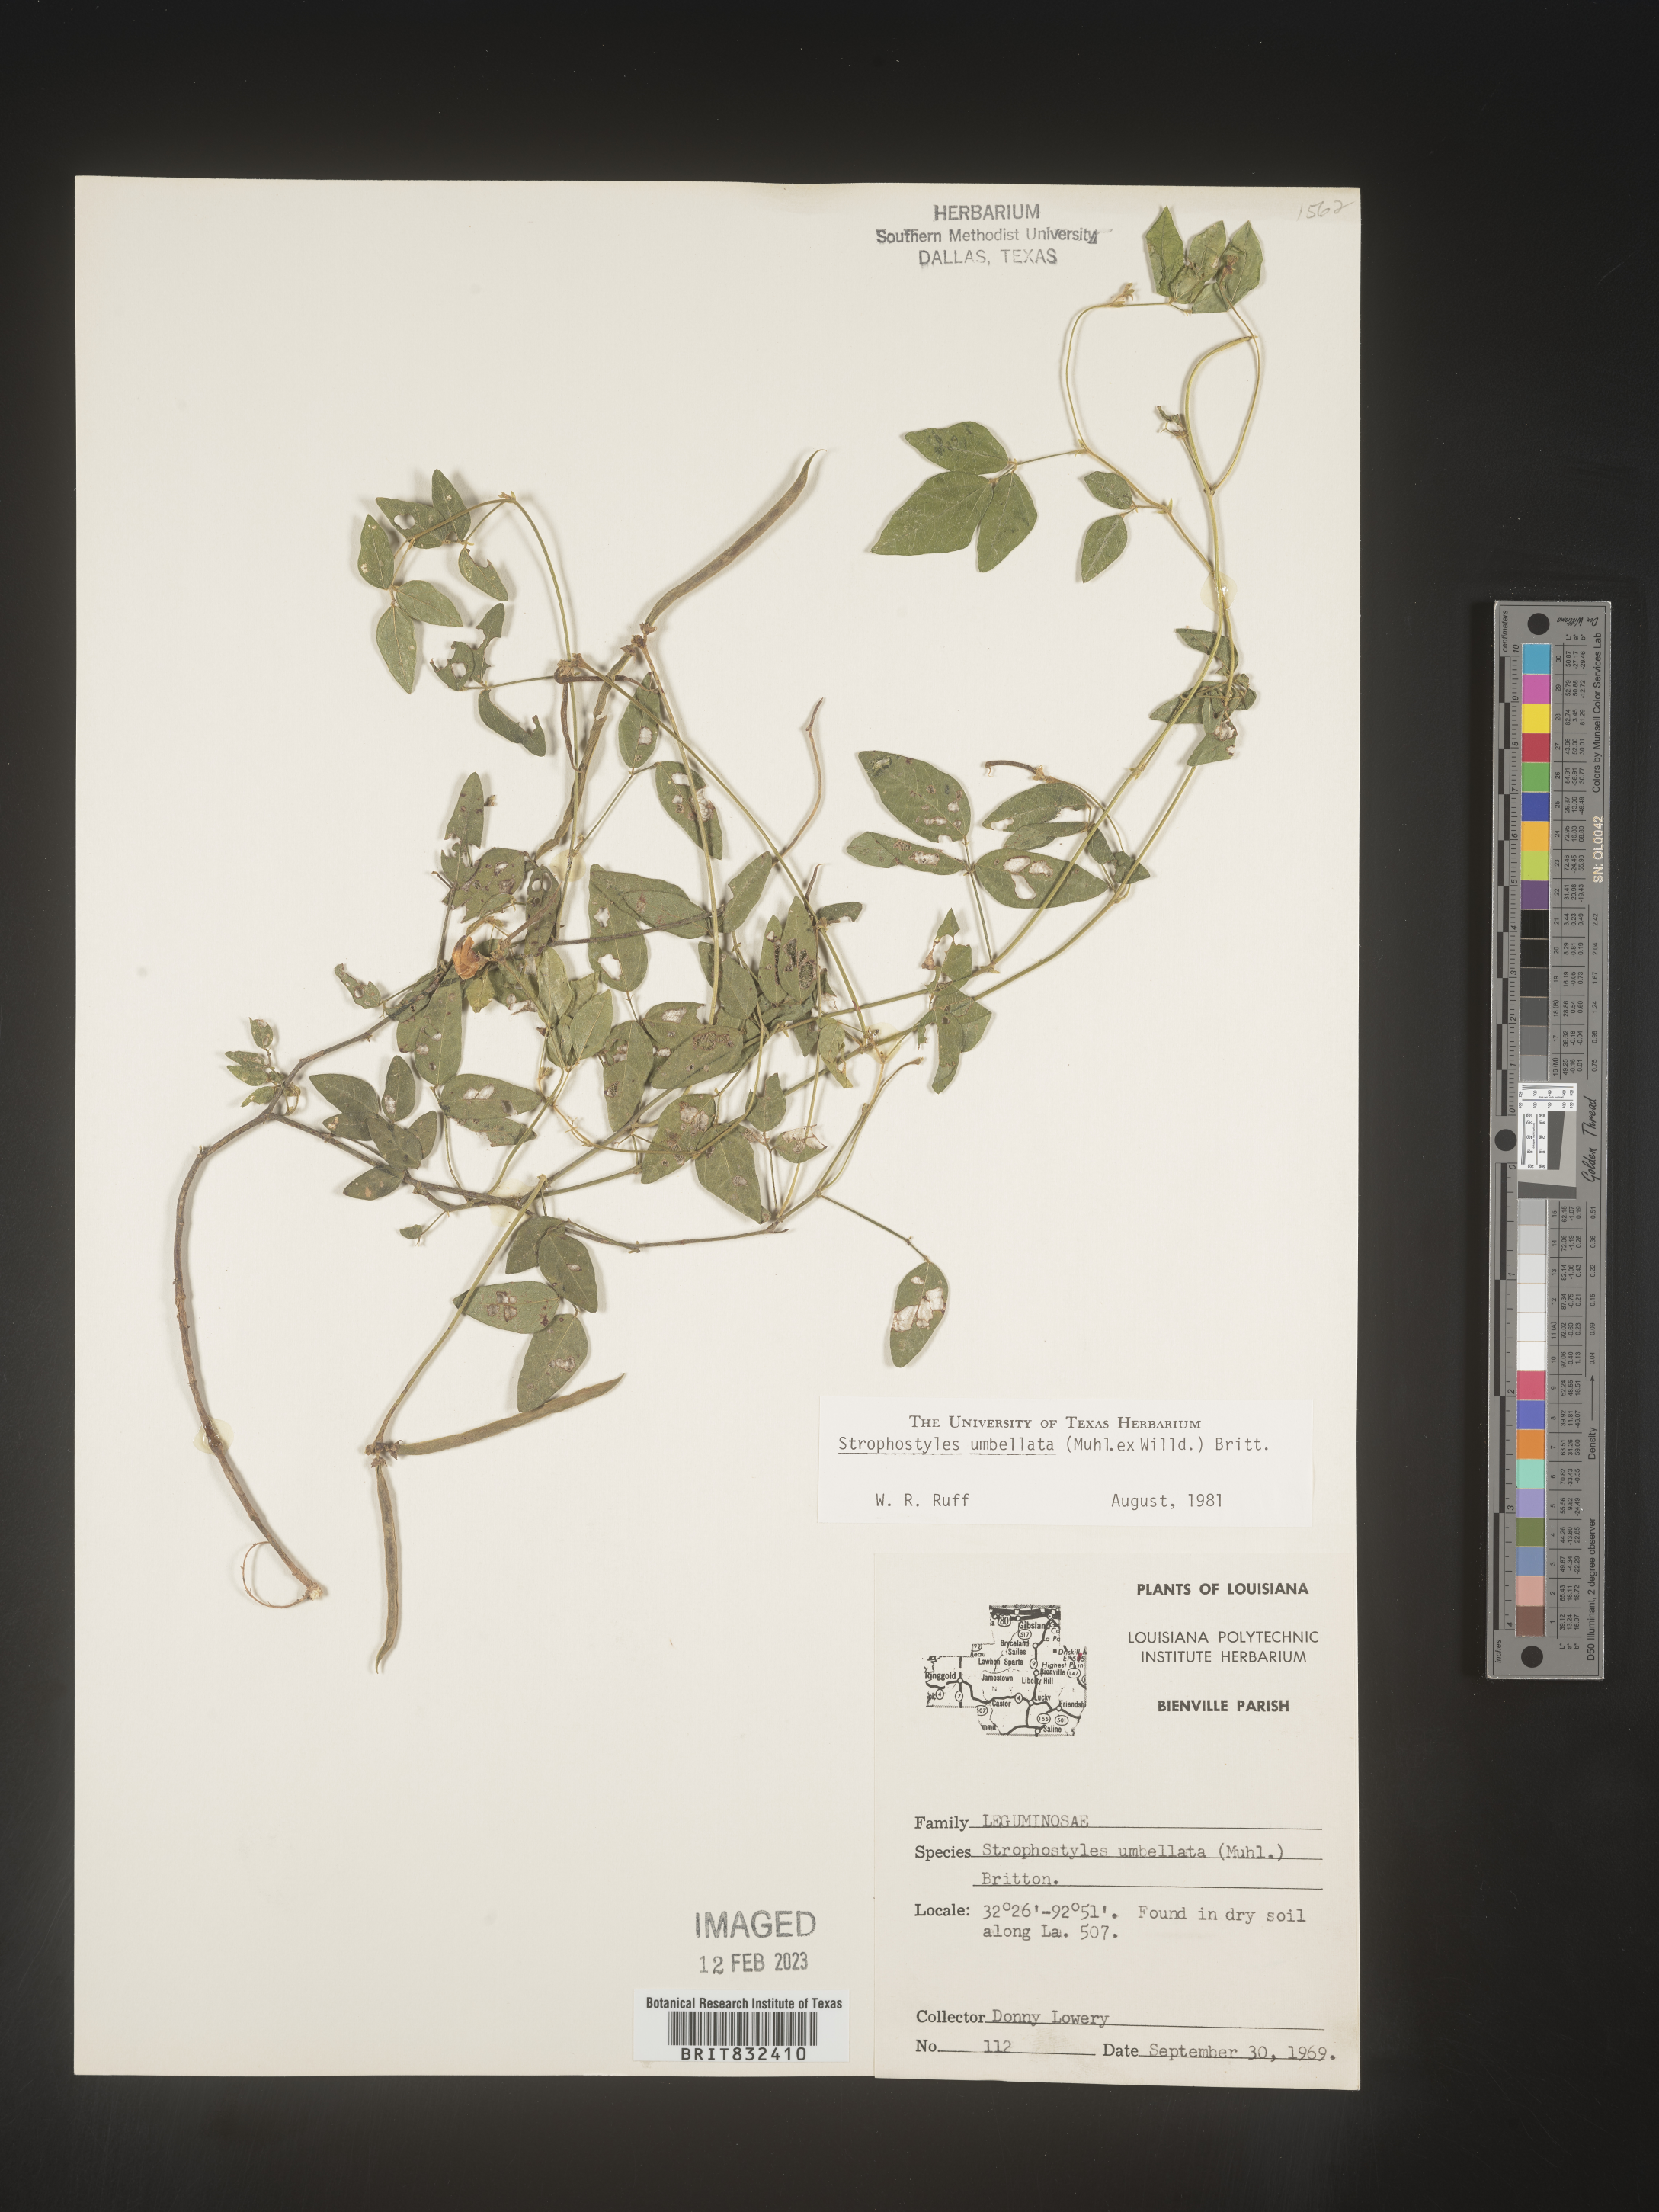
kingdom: Plantae
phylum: Tracheophyta
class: Magnoliopsida
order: Fabales
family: Fabaceae
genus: Strophostyles
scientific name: Strophostyles umbellata
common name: Perennial wild bean
